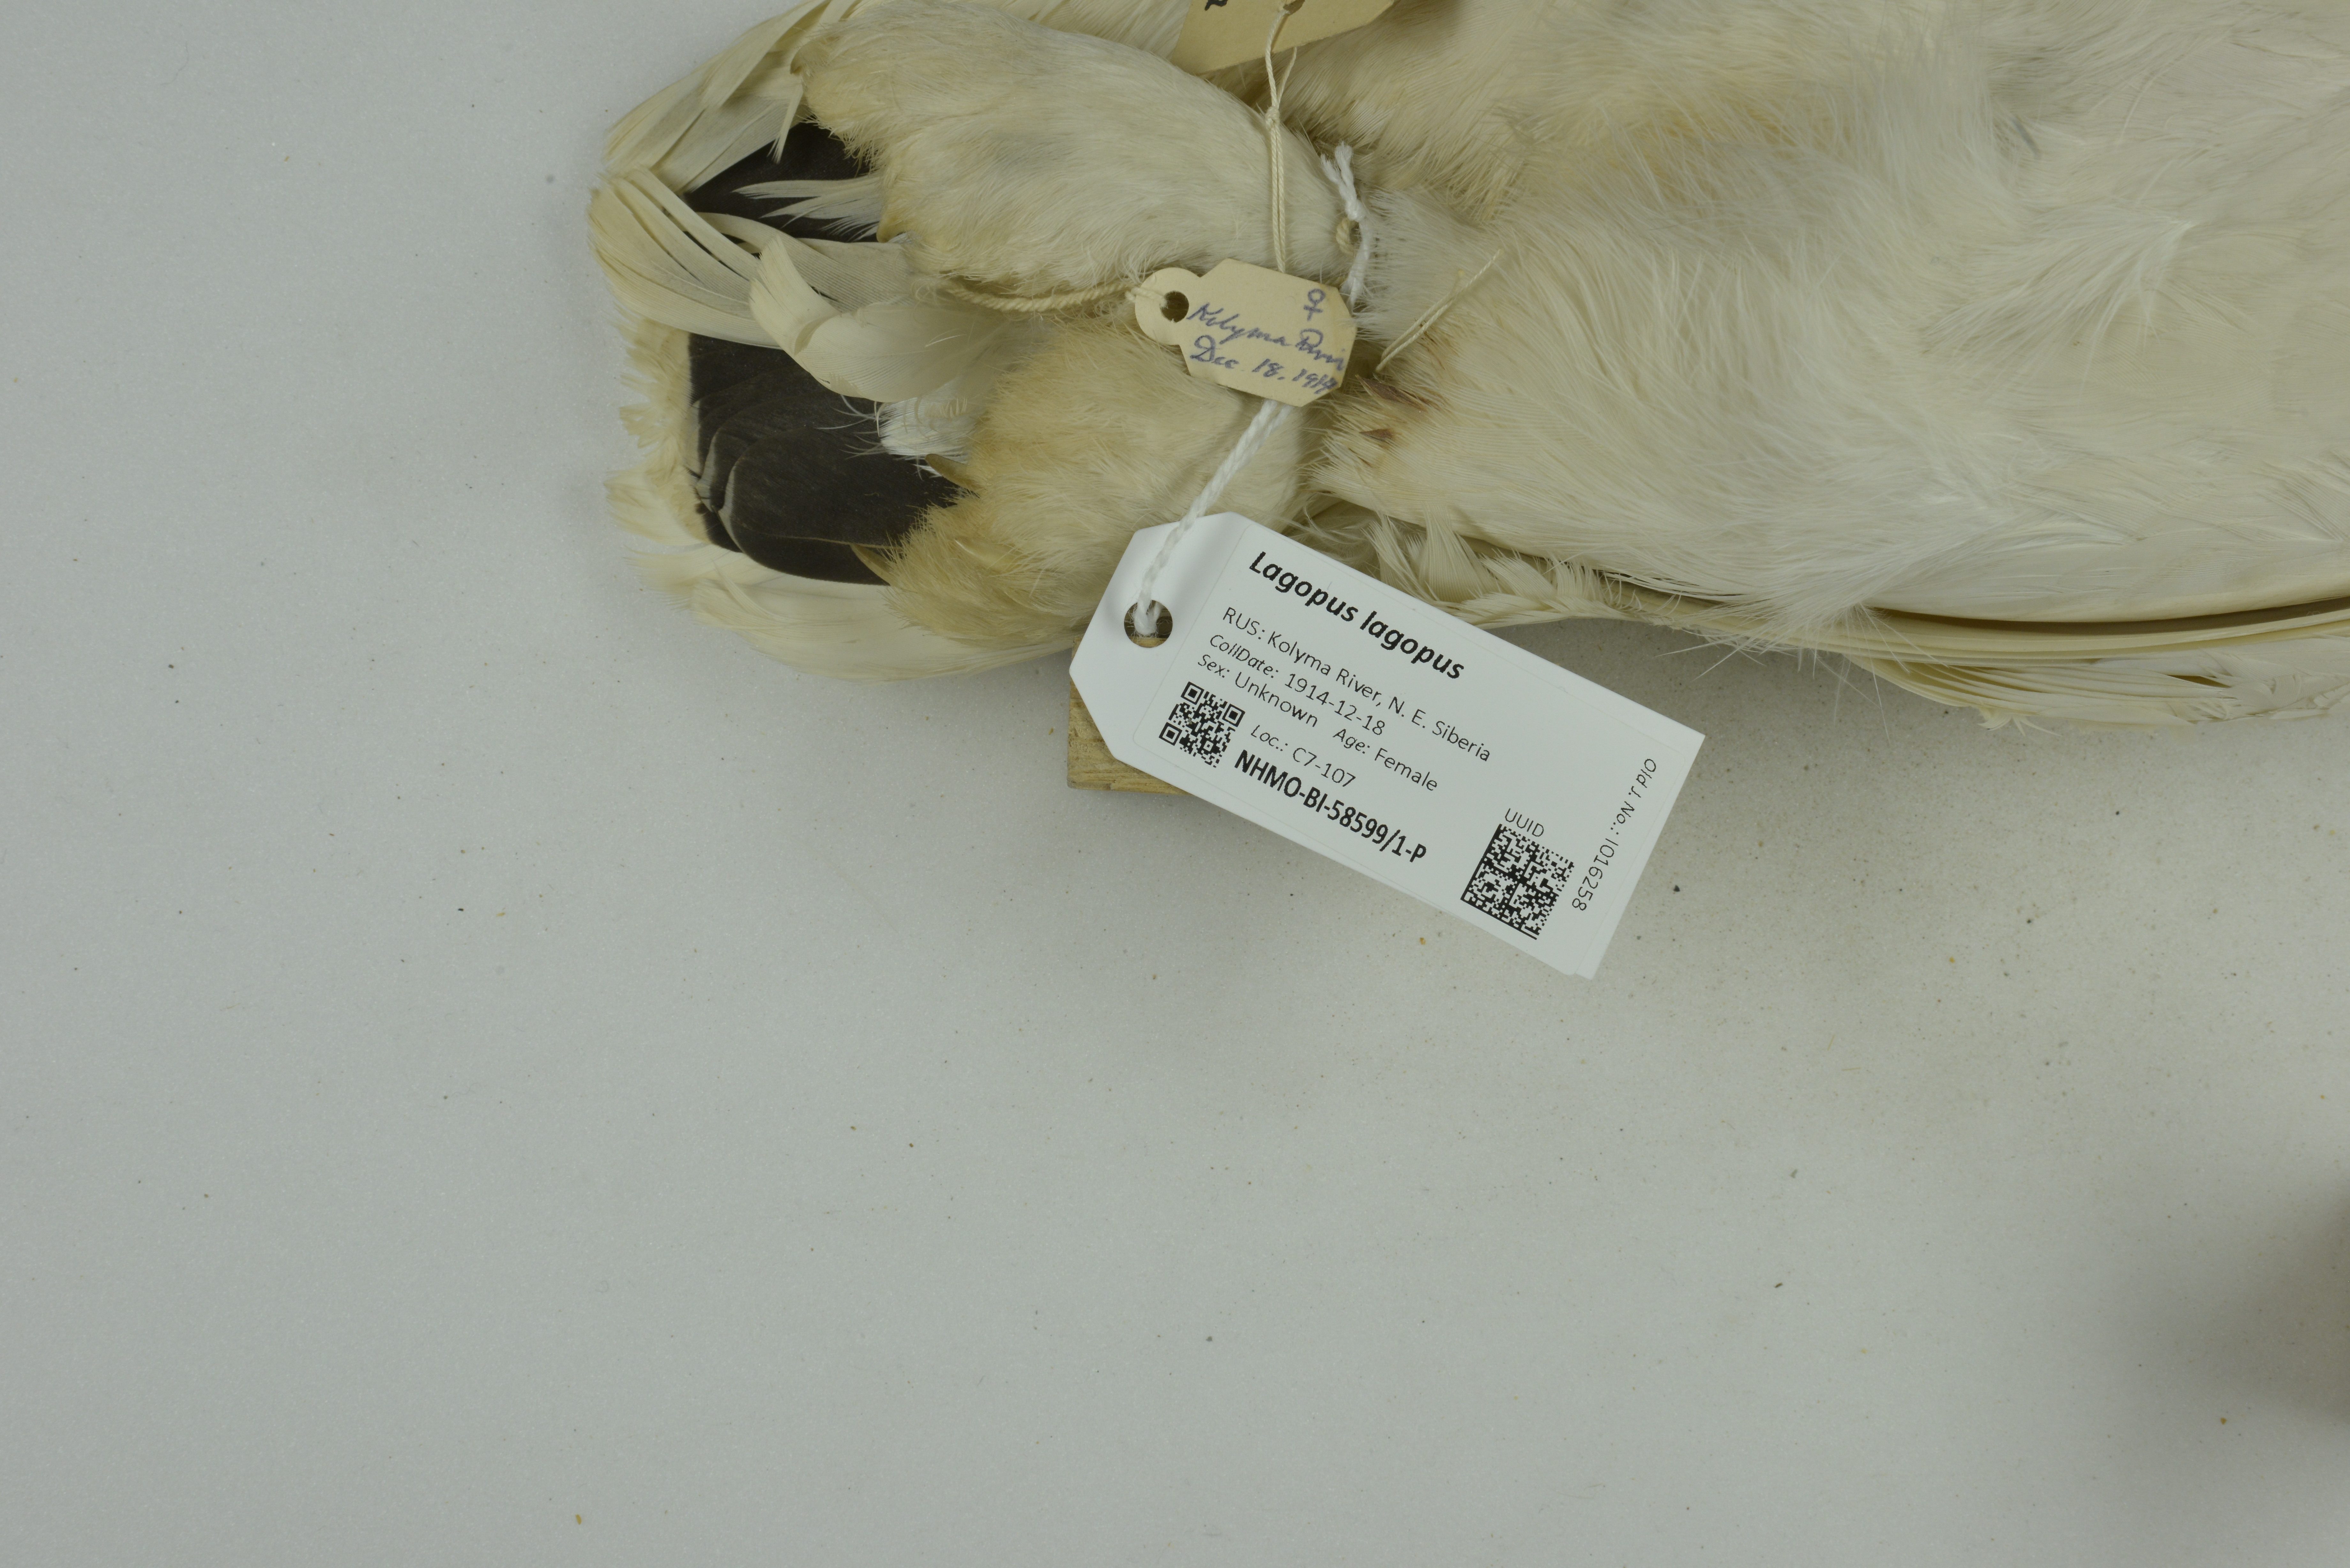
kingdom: Animalia
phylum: Chordata
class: Aves
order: Galliformes
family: Phasianidae
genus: Lagopus
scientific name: Lagopus lagopus
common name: Willow ptarmigan
